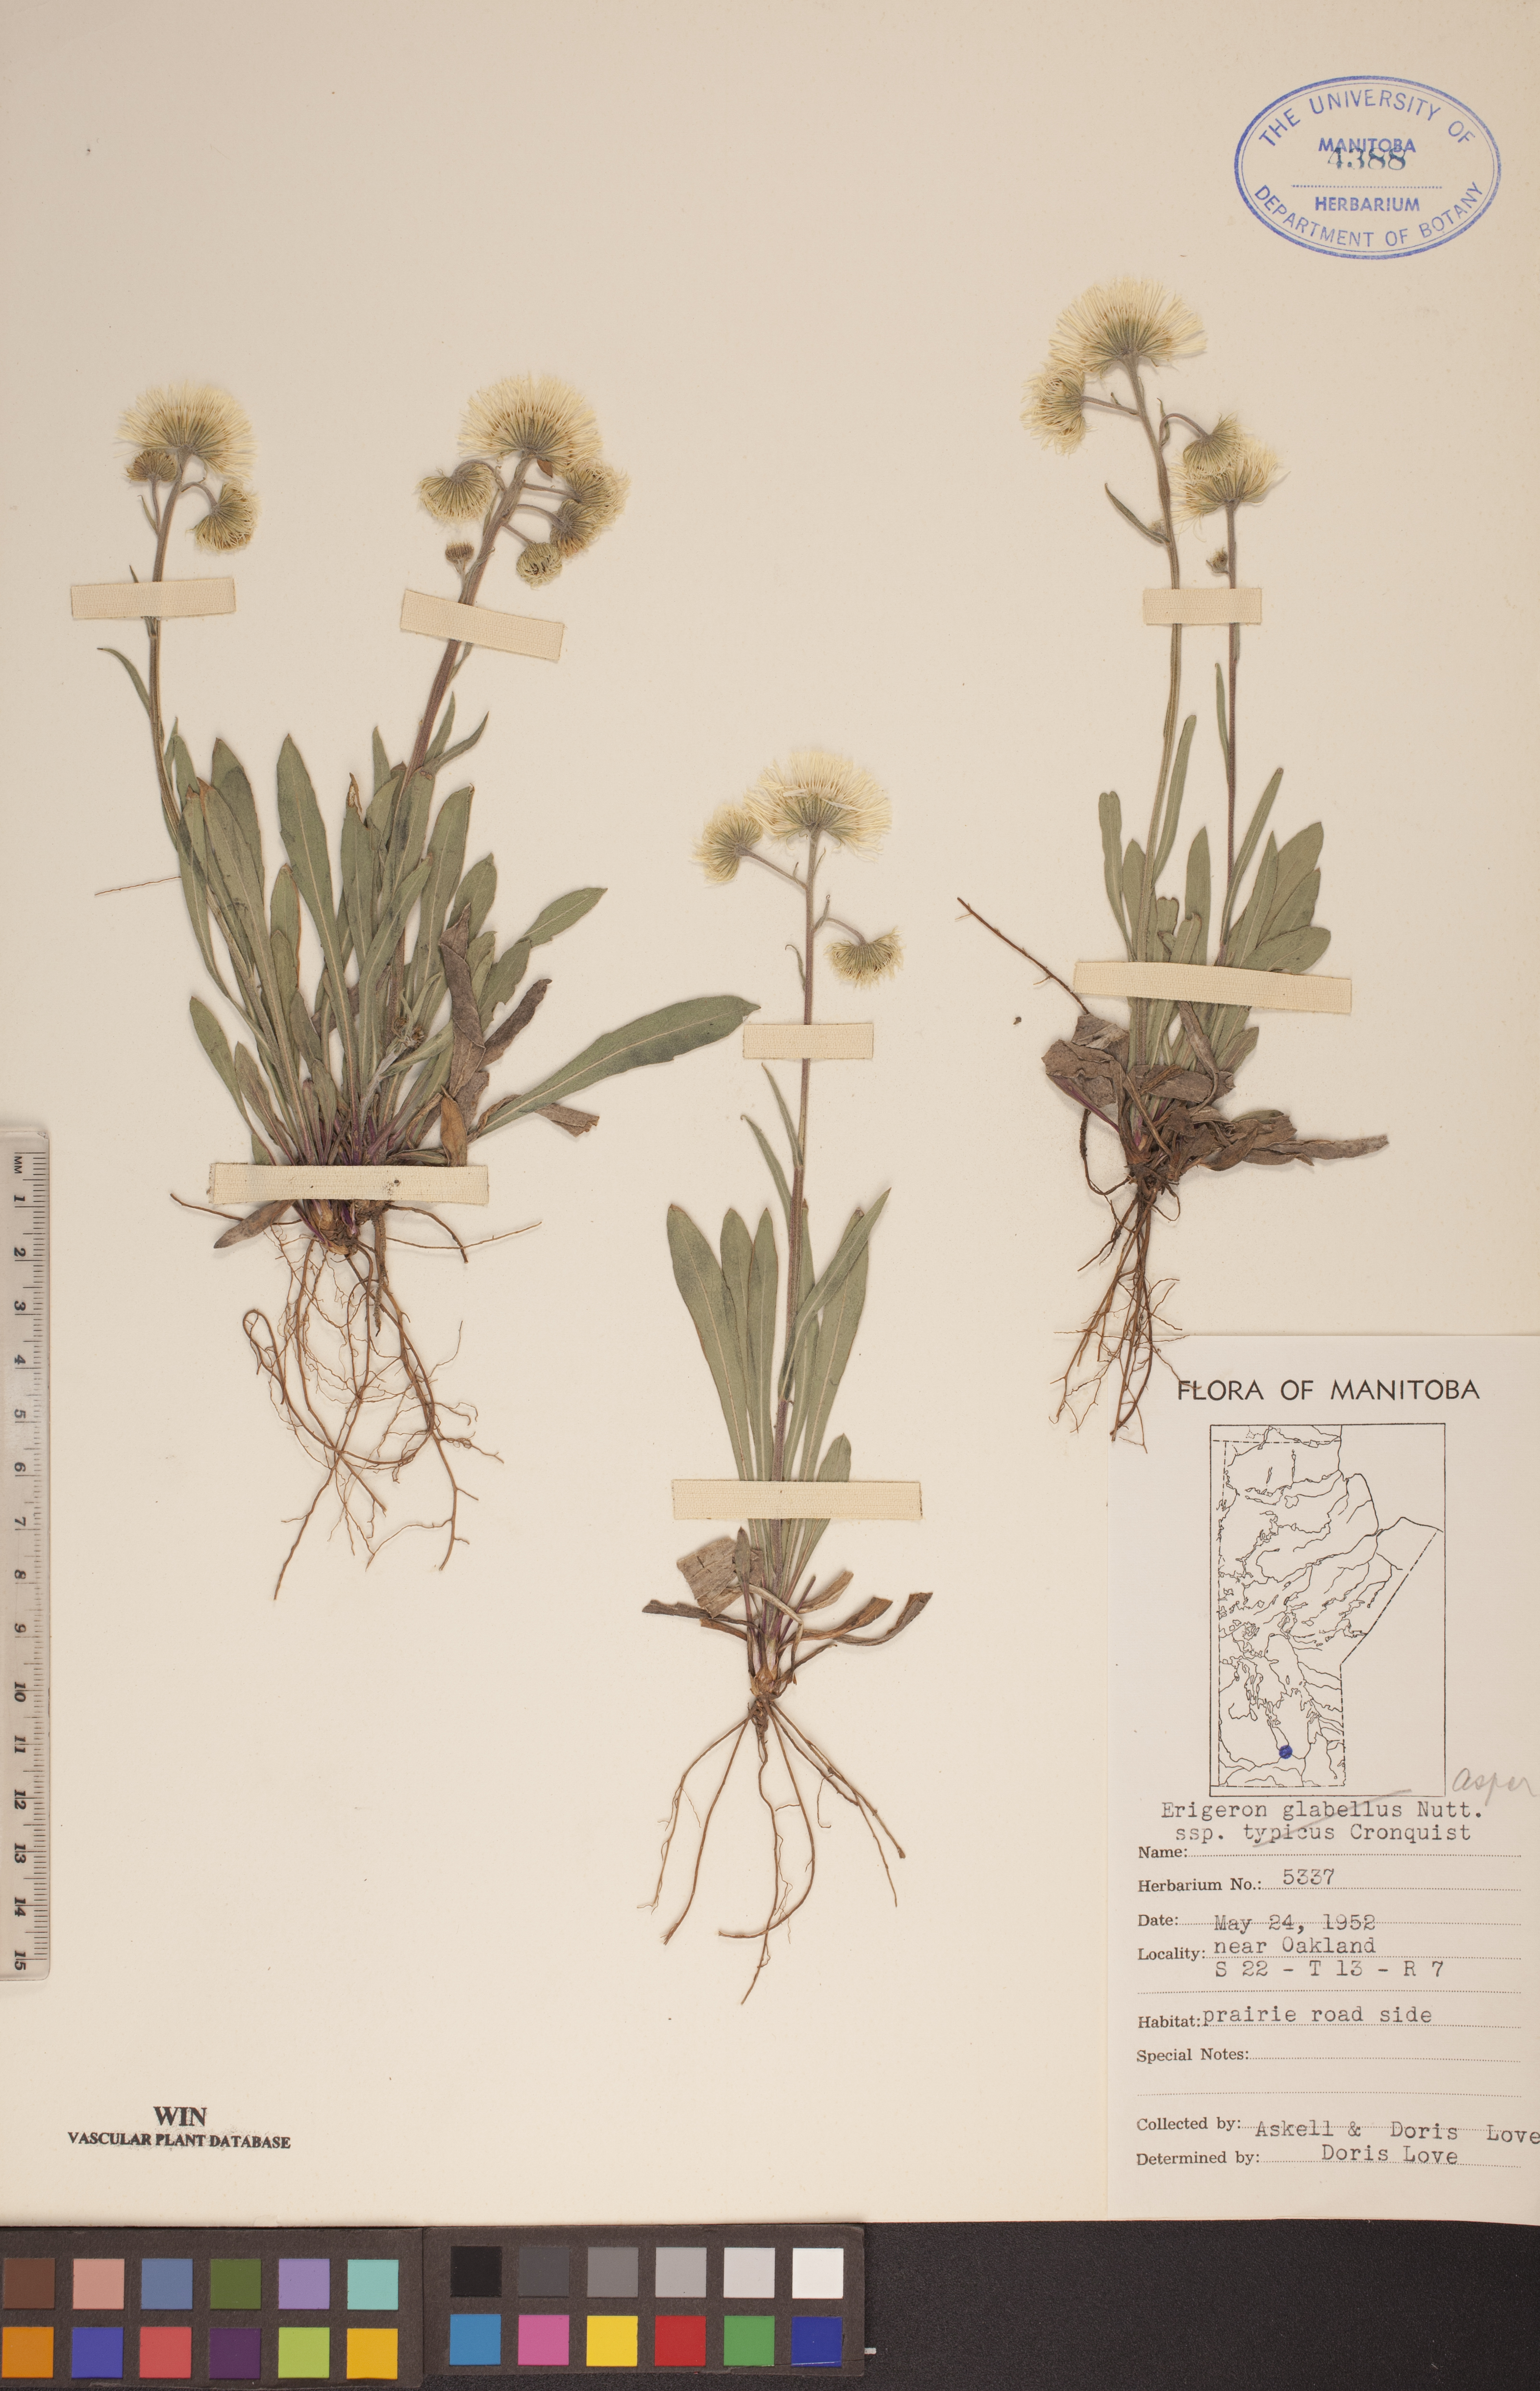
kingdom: Plantae
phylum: Tracheophyta
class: Magnoliopsida
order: Asterales
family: Asteraceae
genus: Erigeron
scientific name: Erigeron glabellus
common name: Smooth fleabane
